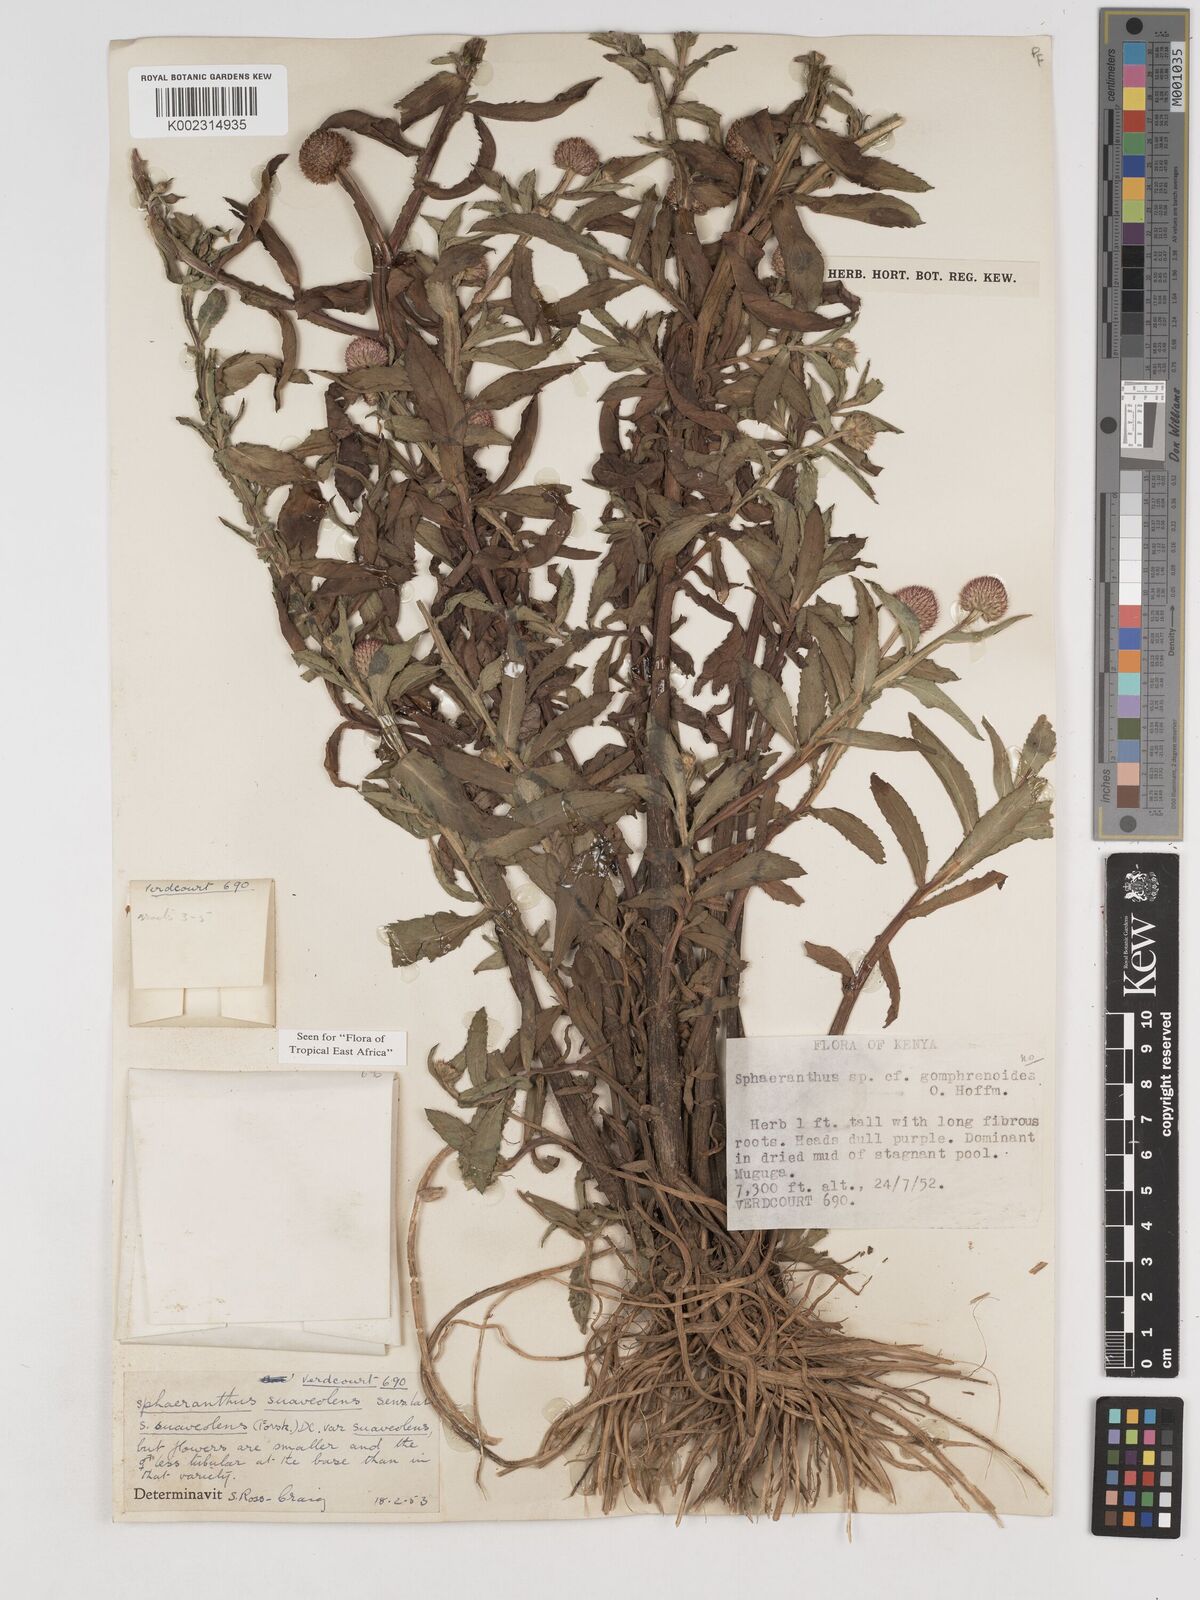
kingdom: Plantae
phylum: Tracheophyta
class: Magnoliopsida
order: Asterales
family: Asteraceae
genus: Sphaeranthus
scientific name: Sphaeranthus suaveolens
